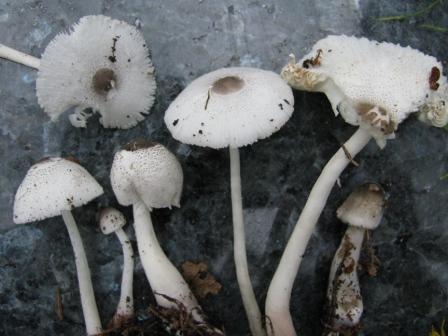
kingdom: Fungi
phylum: Basidiomycota
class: Agaricomycetes
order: Agaricales
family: Agaricaceae
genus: Leucocoprinus
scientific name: Leucocoprinus brebissonii
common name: gråsort silkehat
